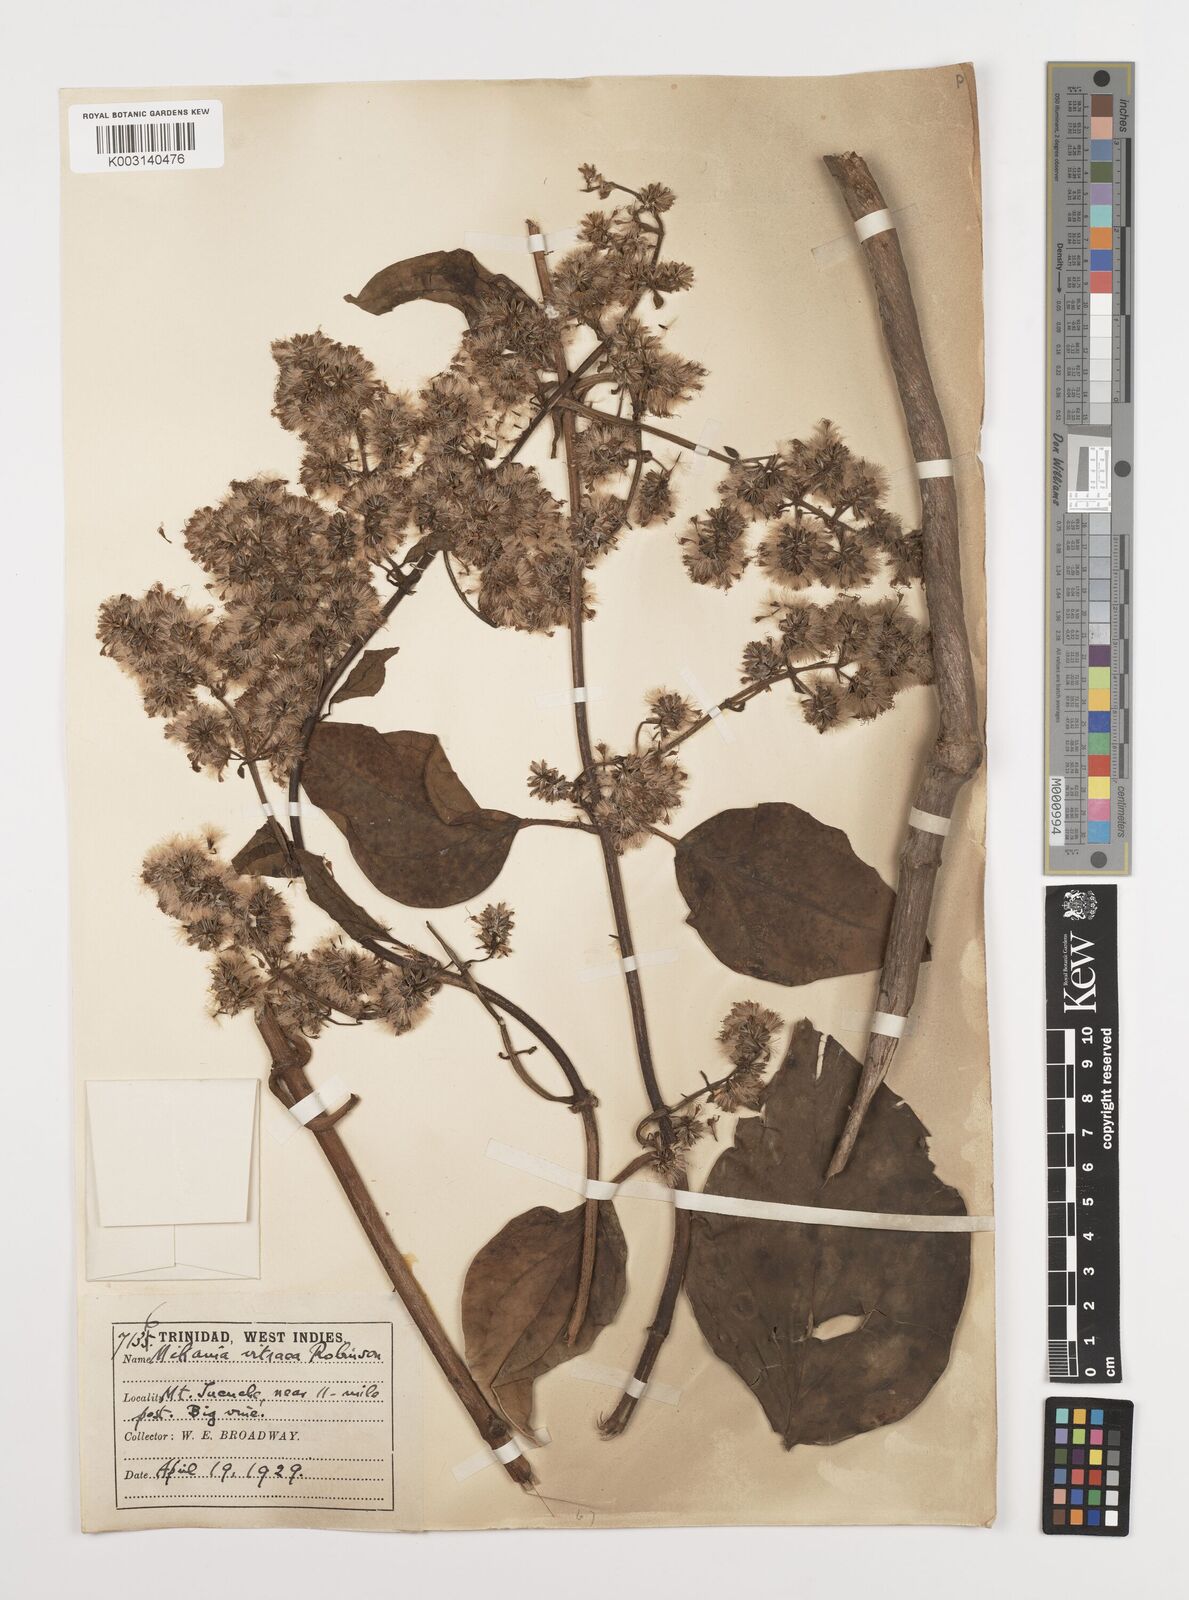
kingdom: Plantae
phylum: Tracheophyta
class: Magnoliopsida
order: Asterales
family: Asteraceae
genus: Mikania
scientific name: Mikania hookeriana
